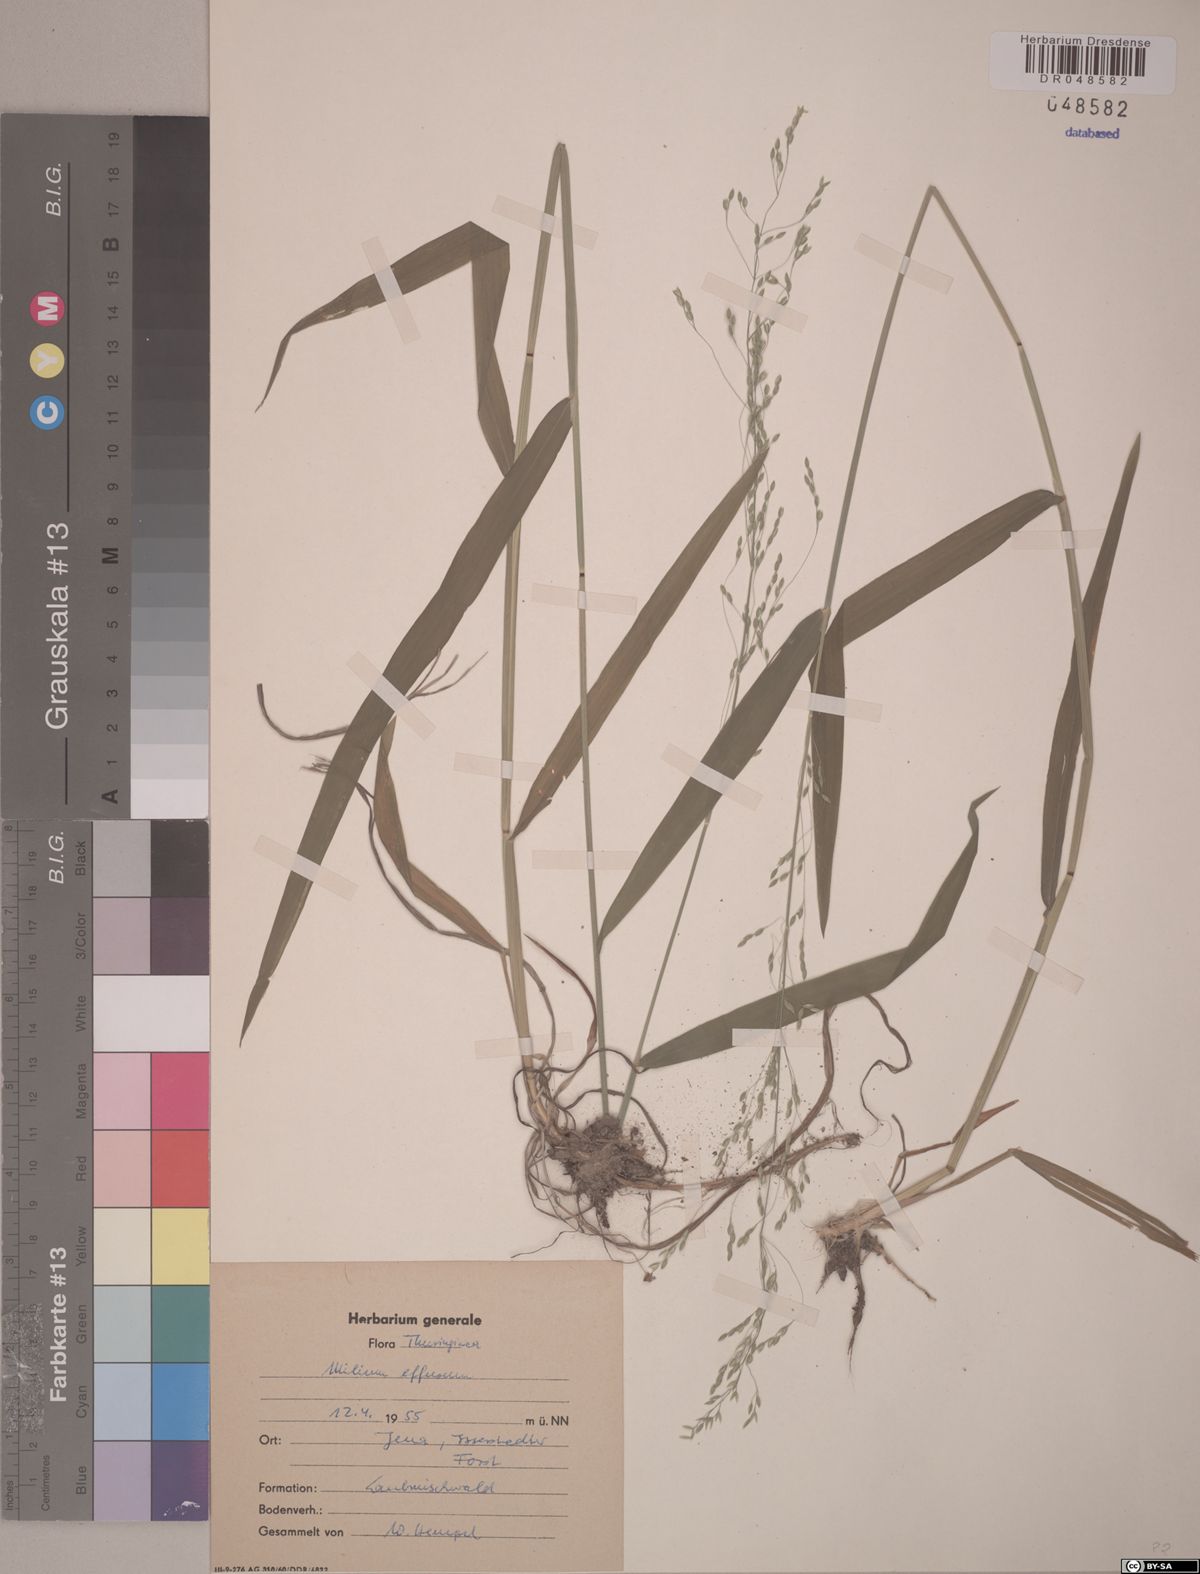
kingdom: Plantae
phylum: Tracheophyta
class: Liliopsida
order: Poales
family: Poaceae
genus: Milium
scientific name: Milium effusum
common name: Wood millet
